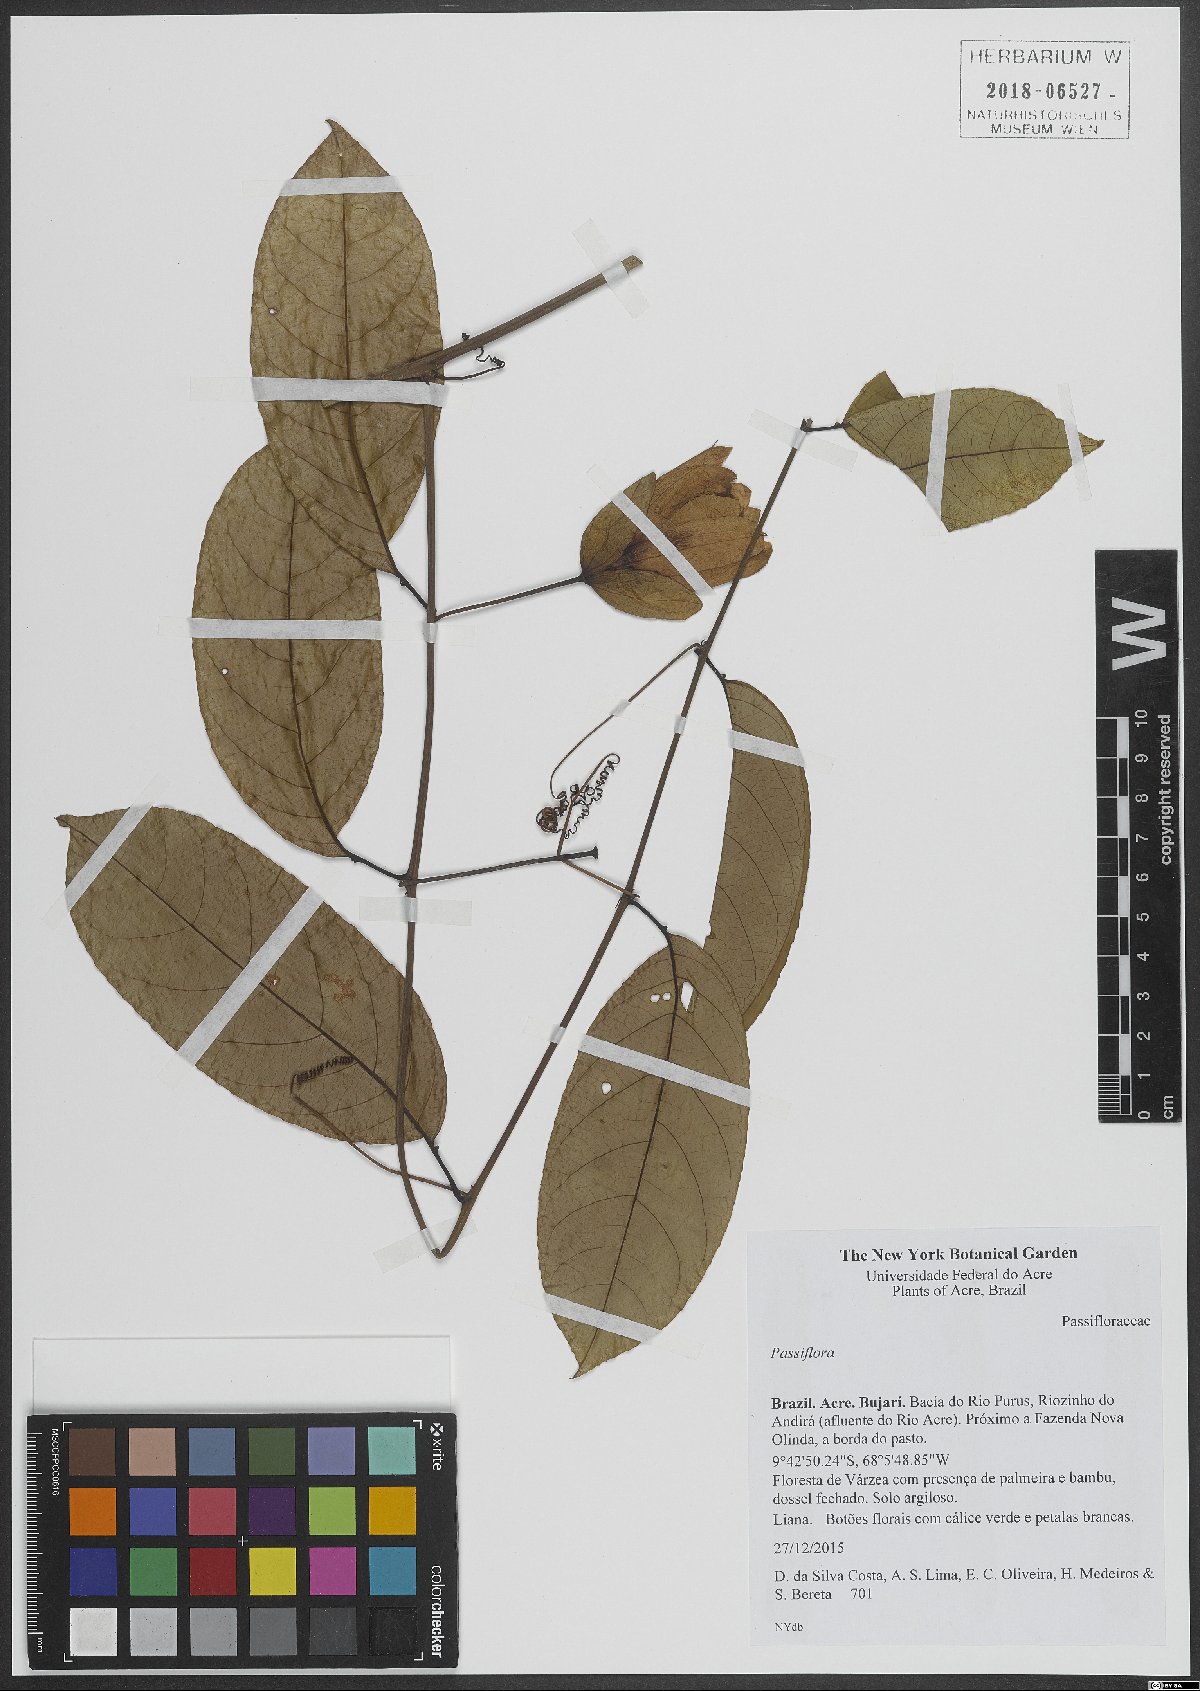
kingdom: Plantae
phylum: Tracheophyta
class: Magnoliopsida
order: Malpighiales
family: Passifloraceae
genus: Passiflora
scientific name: Passiflora
